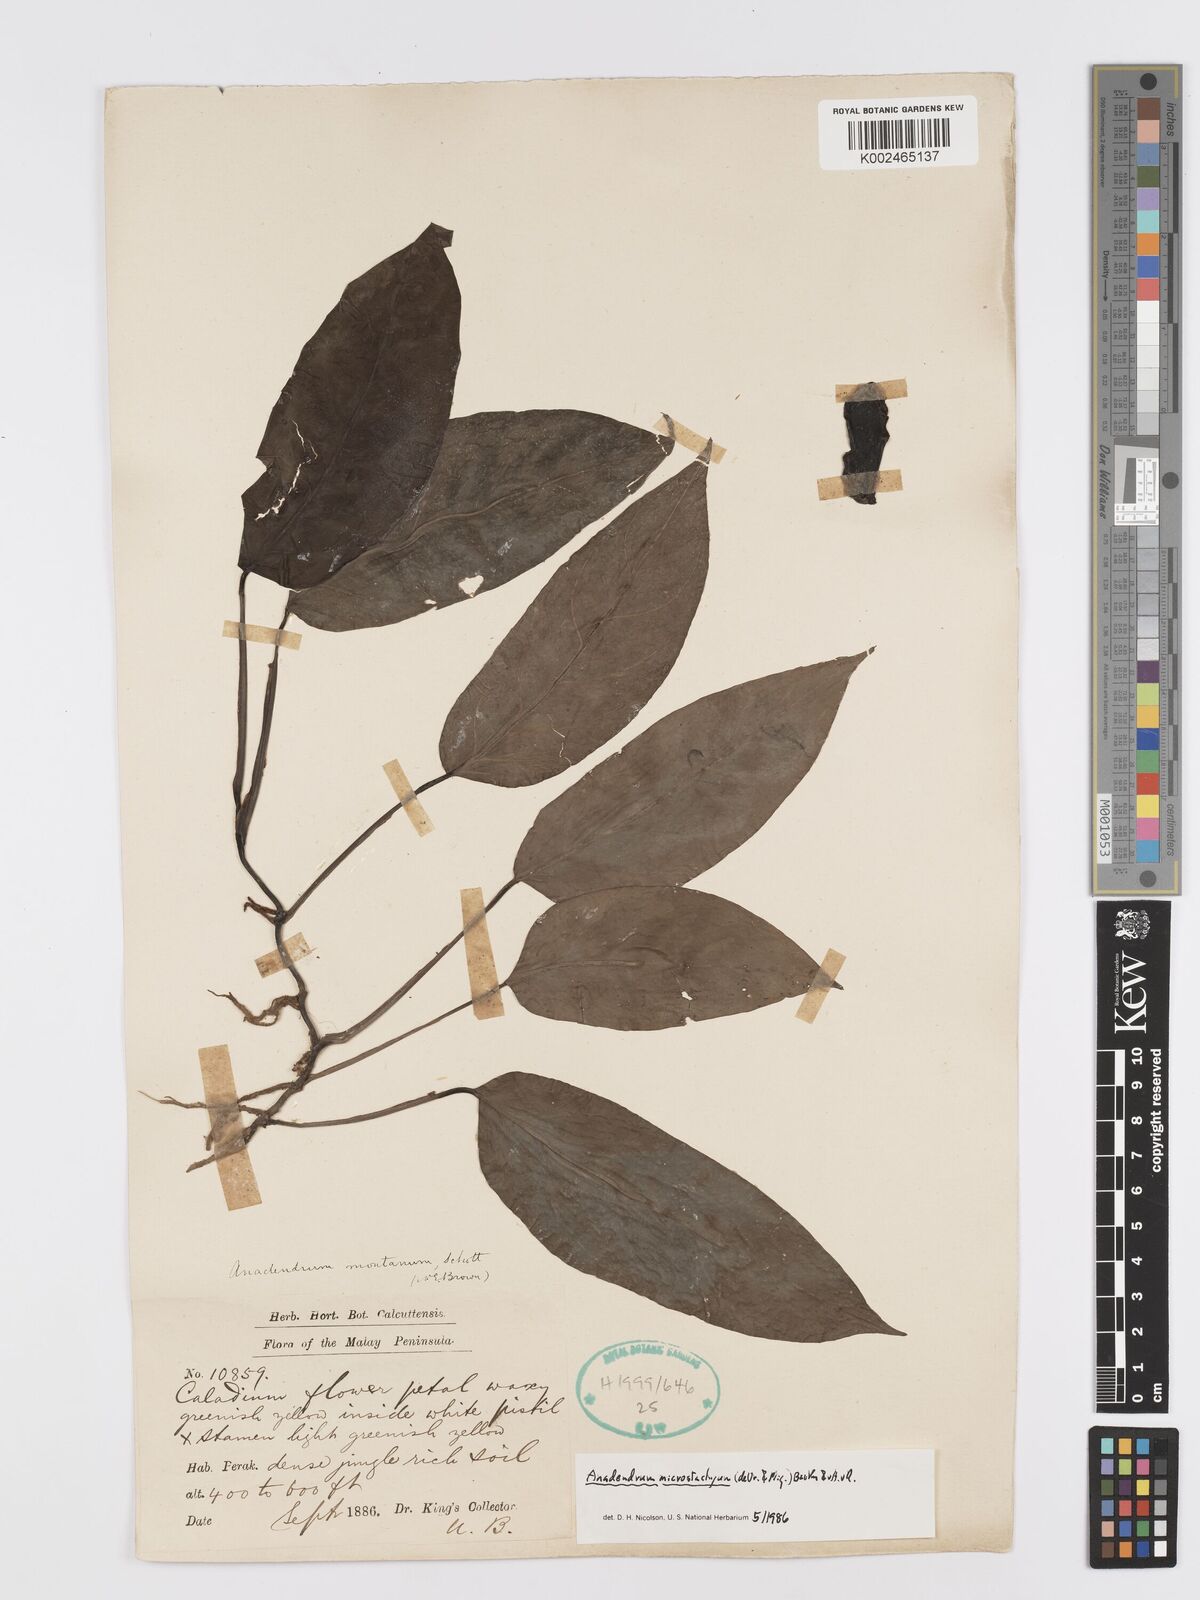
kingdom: Plantae
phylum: Tracheophyta
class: Liliopsida
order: Alismatales
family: Araceae
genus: Anadendrum
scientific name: Anadendrum microstachyum
